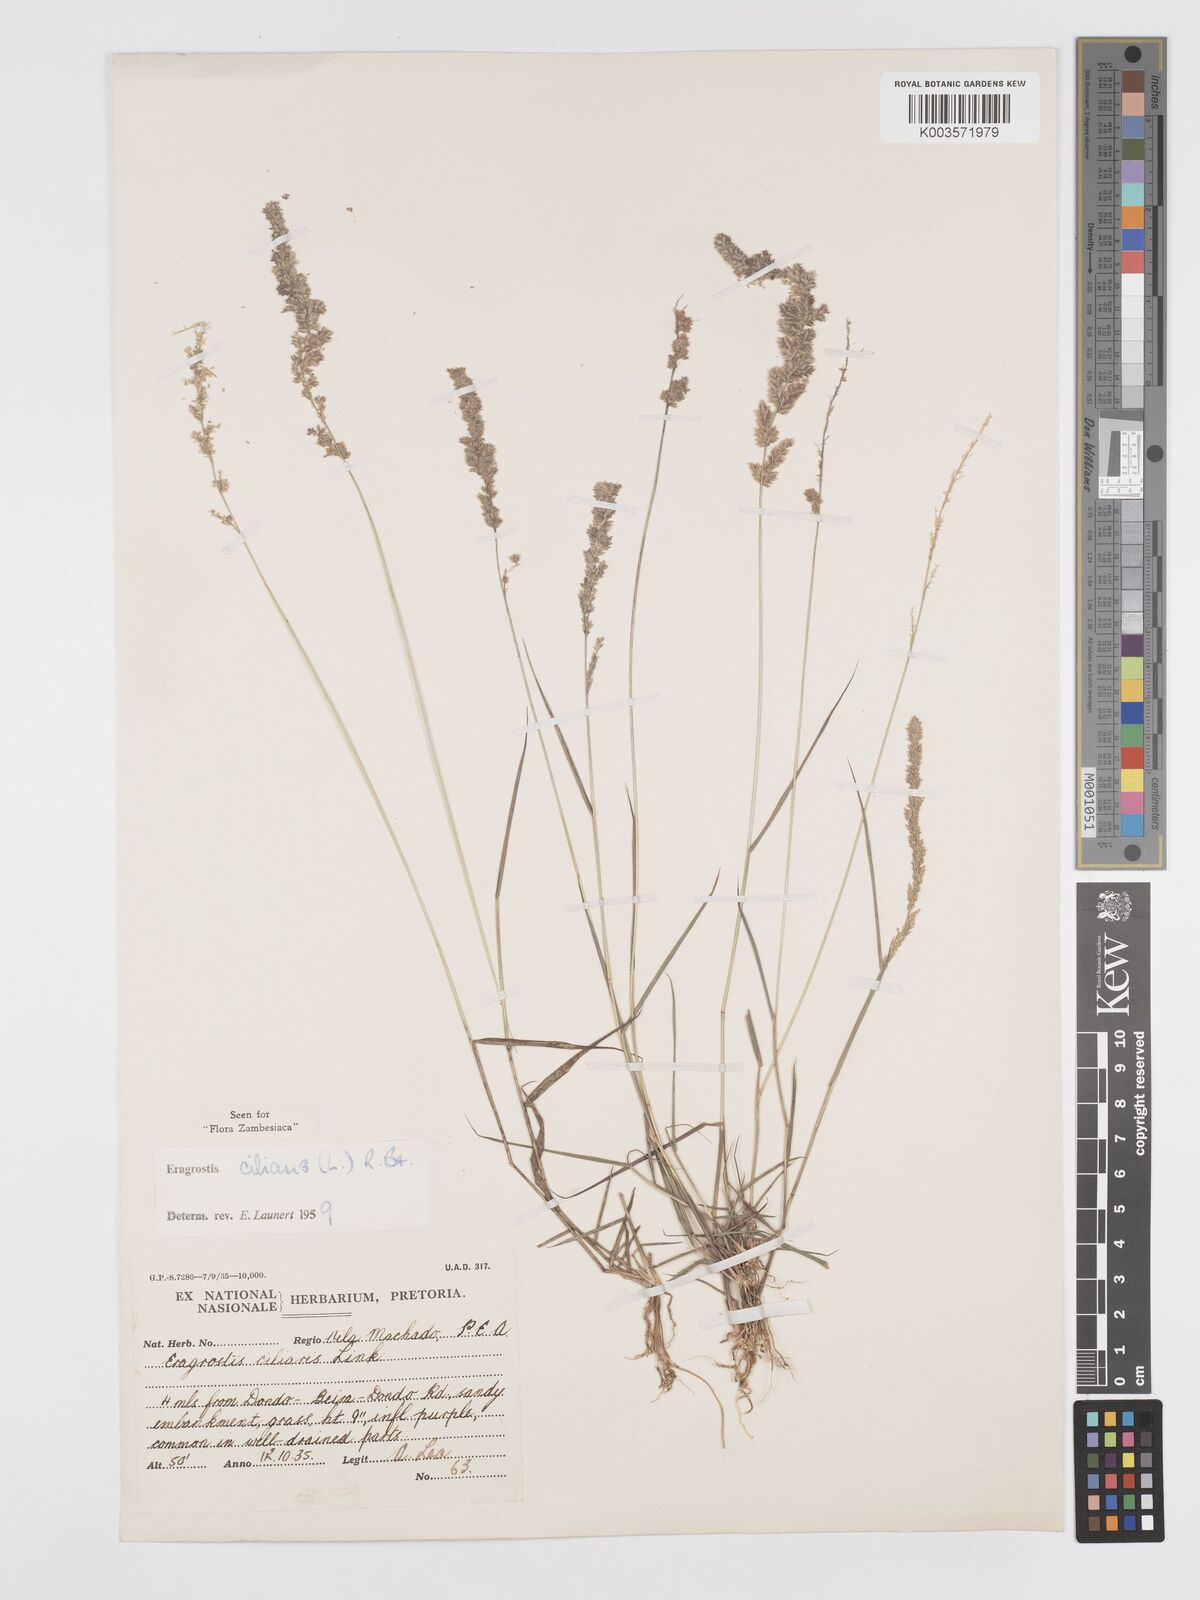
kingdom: Plantae
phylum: Tracheophyta
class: Liliopsida
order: Poales
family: Poaceae
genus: Eragrostis
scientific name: Eragrostis ciliaris
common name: Gophertail lovegrass
